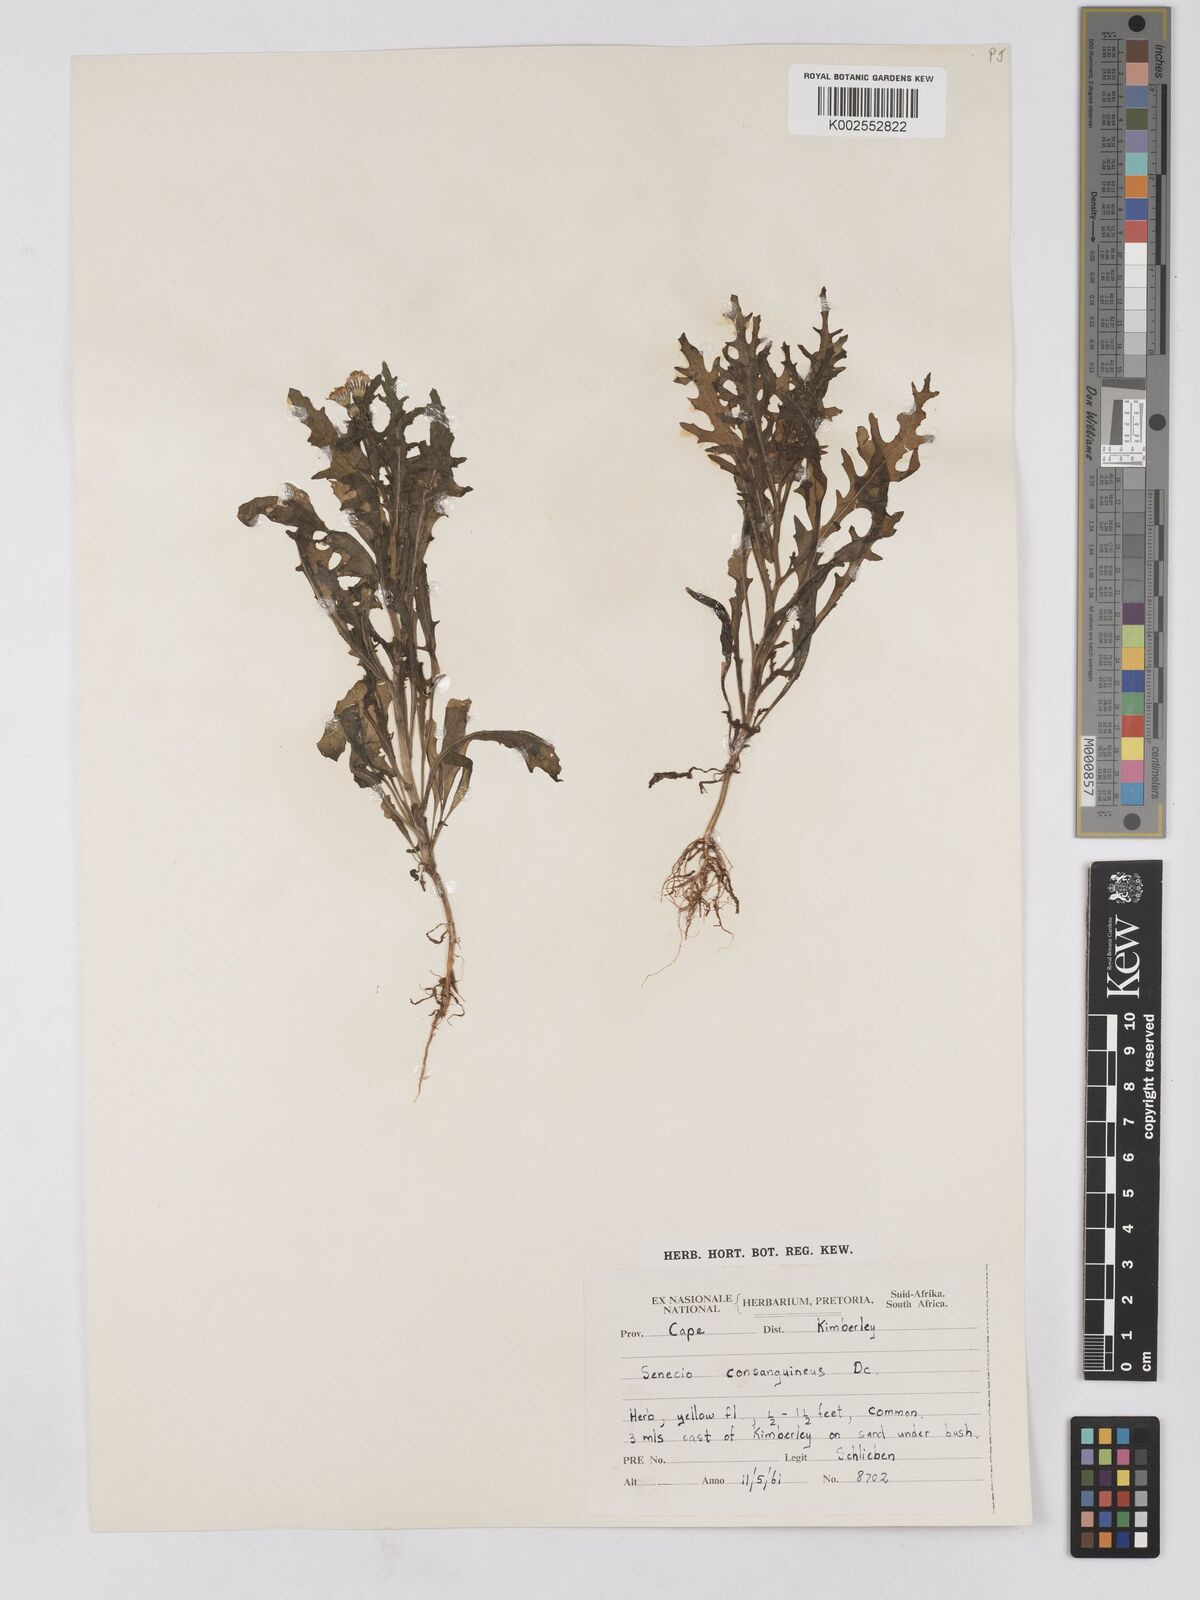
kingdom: Plantae
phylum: Tracheophyta
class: Magnoliopsida
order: Asterales
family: Asteraceae
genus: Senecio
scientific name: Senecio consanguineus
